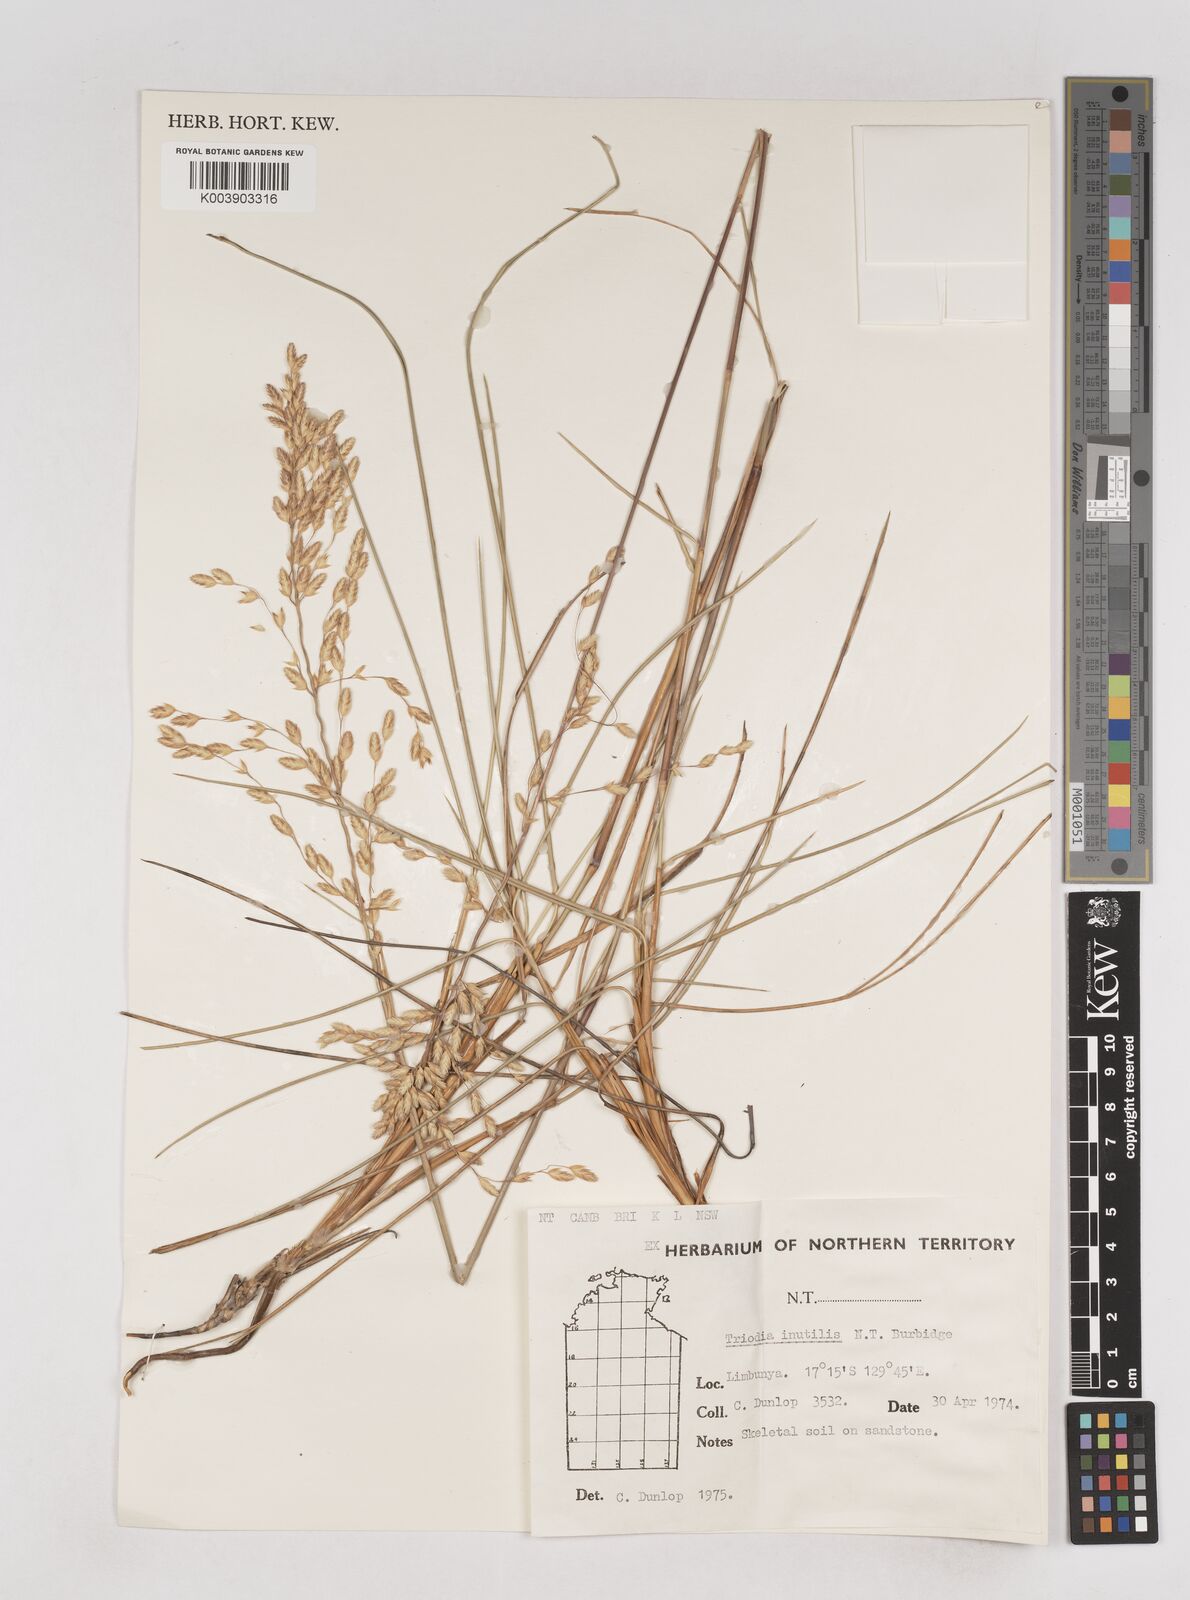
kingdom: Plantae
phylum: Tracheophyta
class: Liliopsida
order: Poales
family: Poaceae
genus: Triodia
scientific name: Triodia inutilis
